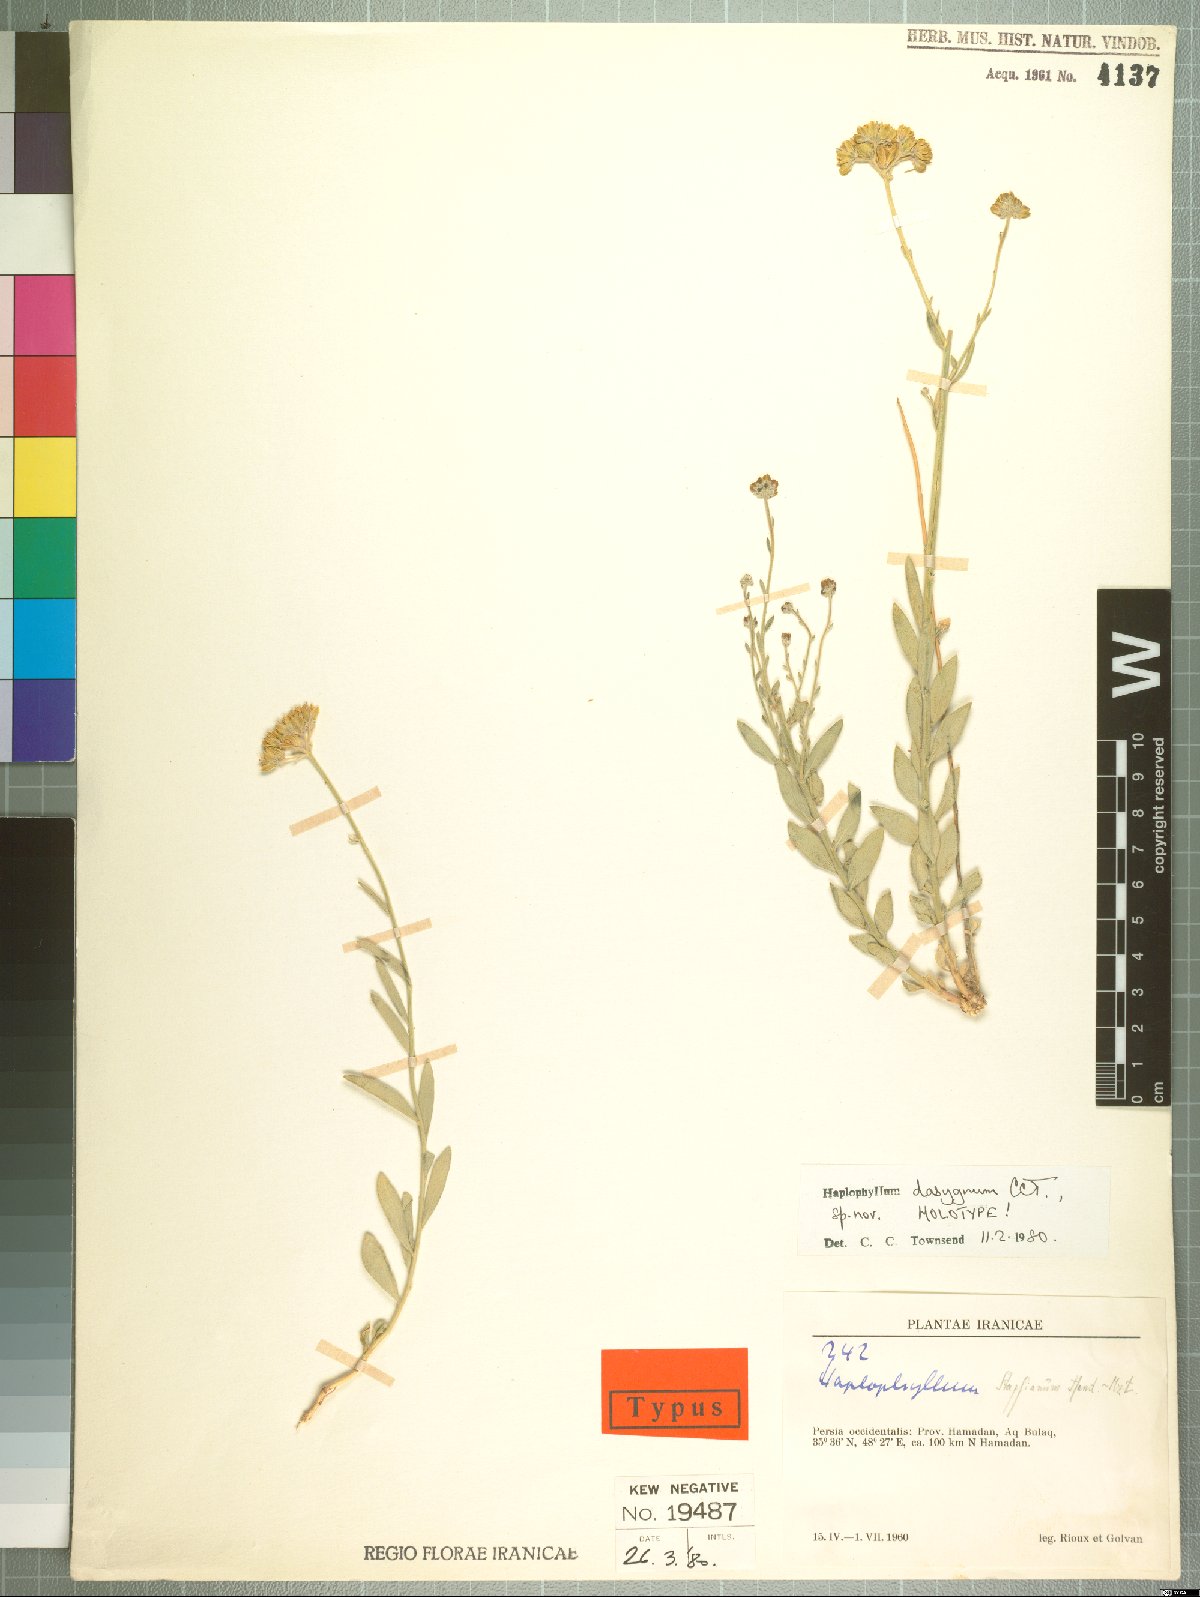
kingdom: Plantae
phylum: Tracheophyta
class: Magnoliopsida
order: Sapindales
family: Rutaceae
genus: Haplophyllum
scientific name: Haplophyllum dasygynum
